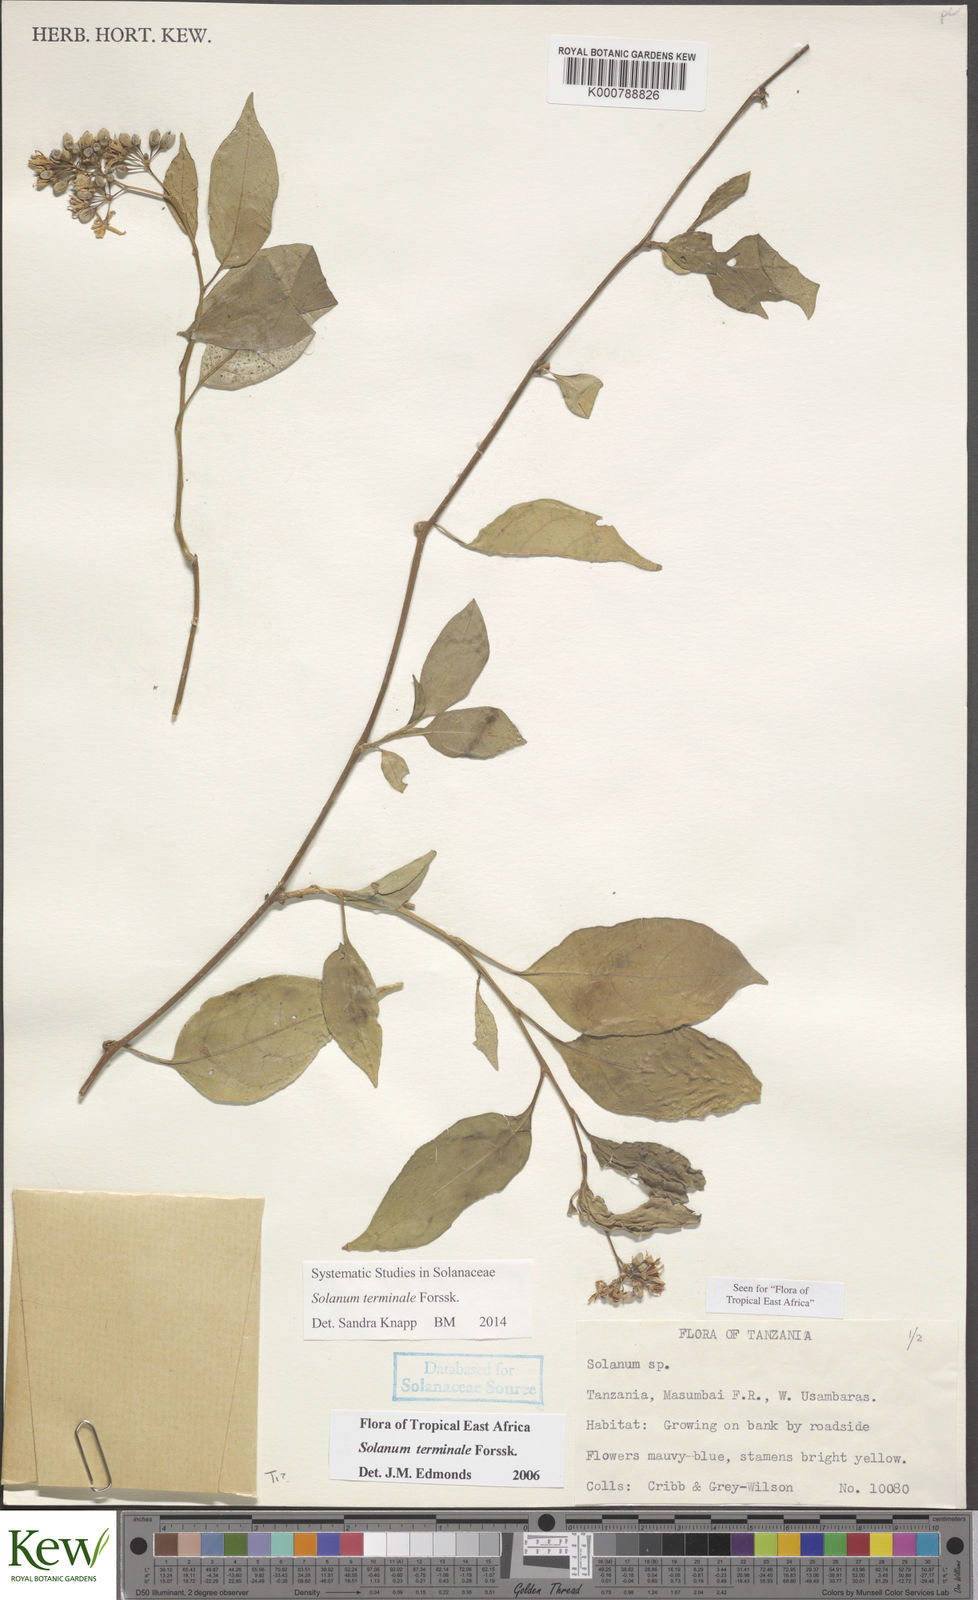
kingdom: Plantae
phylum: Tracheophyta
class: Magnoliopsida
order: Solanales
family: Solanaceae
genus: Solanum
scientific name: Solanum terminale
